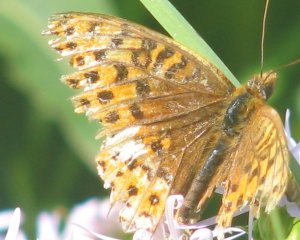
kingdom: Animalia
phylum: Arthropoda
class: Insecta
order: Lepidoptera
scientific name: Lepidoptera
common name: Butterflies
